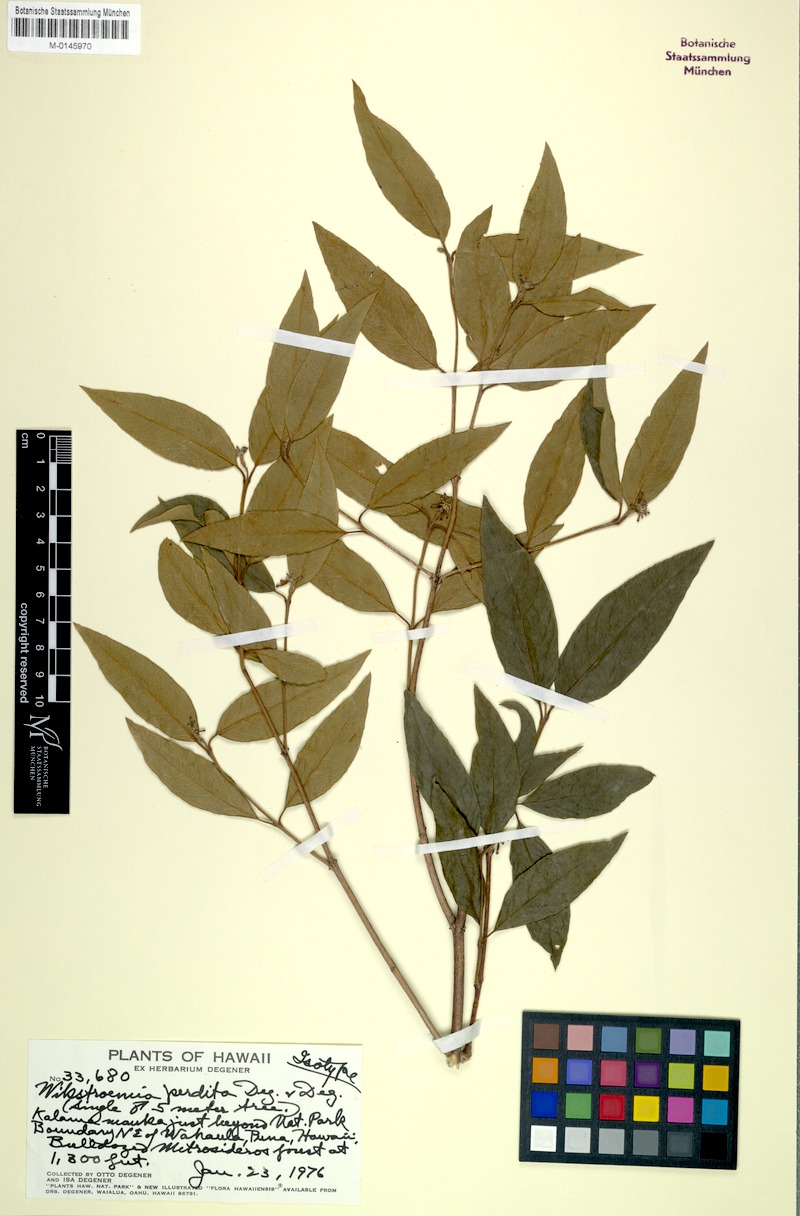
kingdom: Plantae
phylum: Tracheophyta
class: Magnoliopsida
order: Malvales
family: Thymelaeaceae
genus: Wikstroemia
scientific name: Wikstroemia sandwicensis
